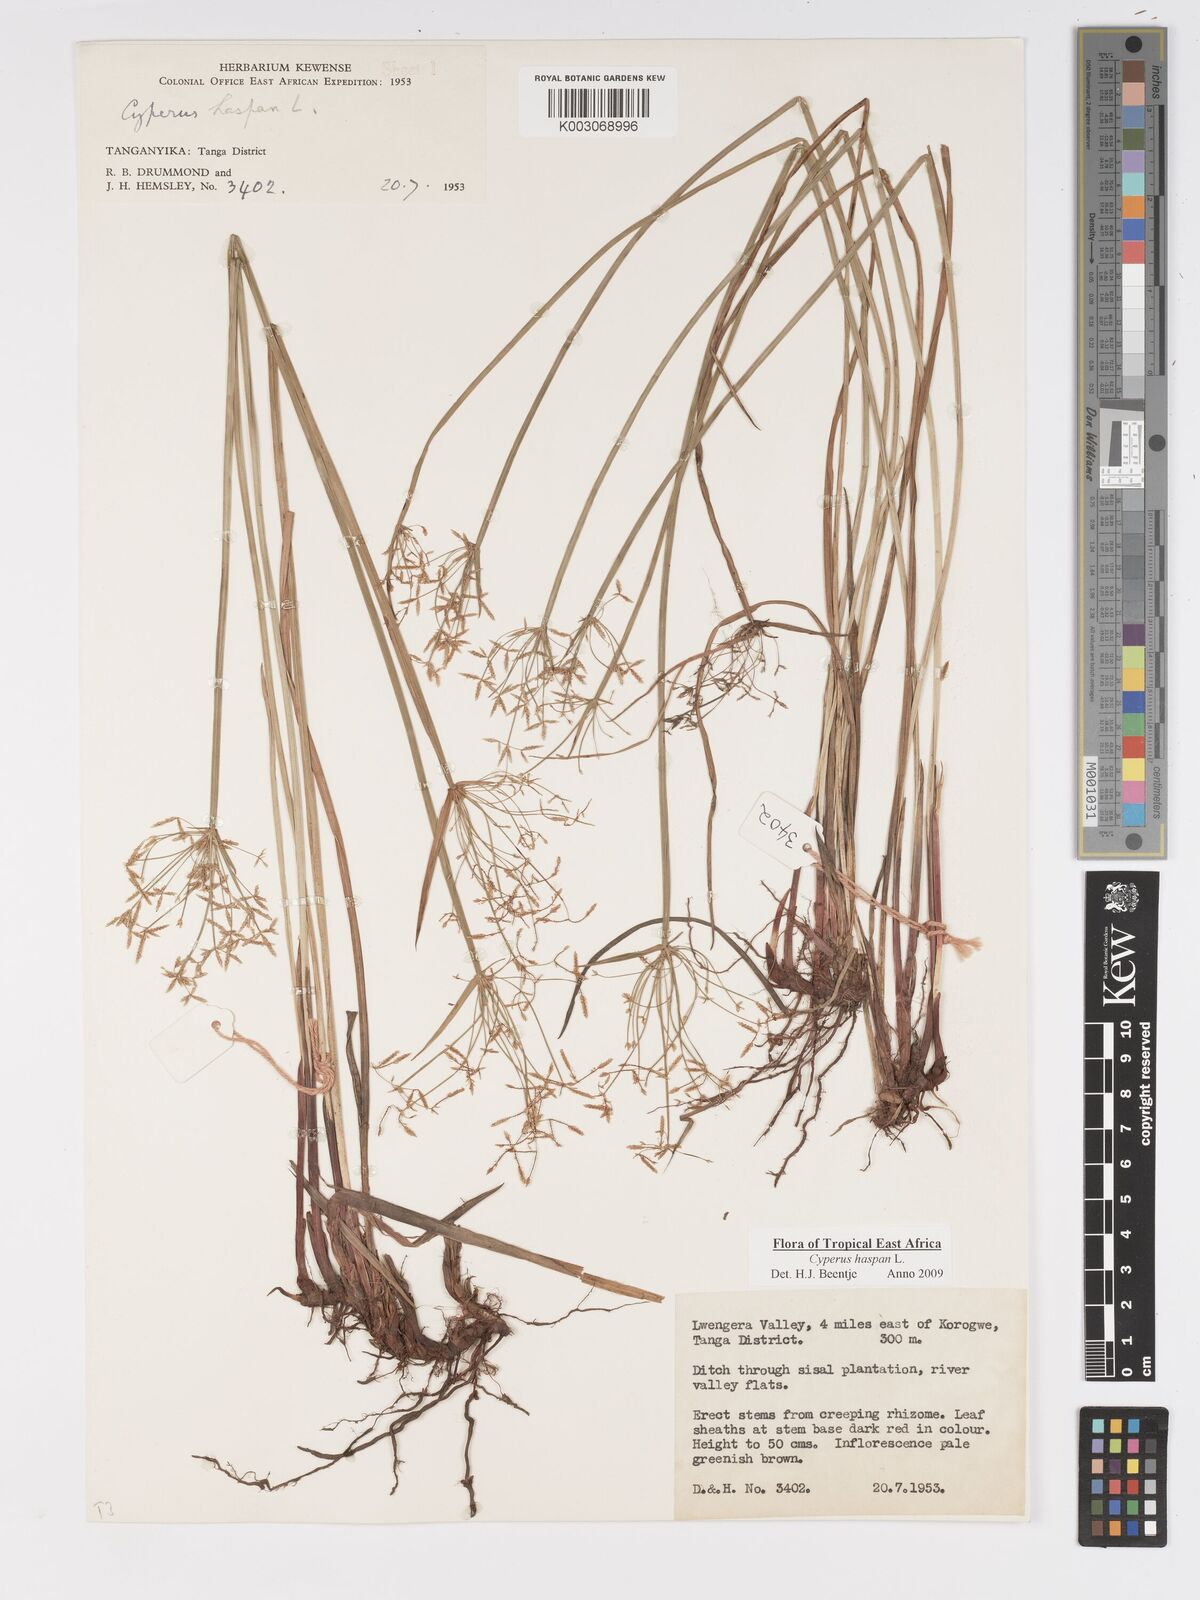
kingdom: Plantae
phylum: Tracheophyta
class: Liliopsida
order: Poales
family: Cyperaceae
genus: Cyperus
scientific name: Cyperus haspan
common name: Haspan flatsedge
